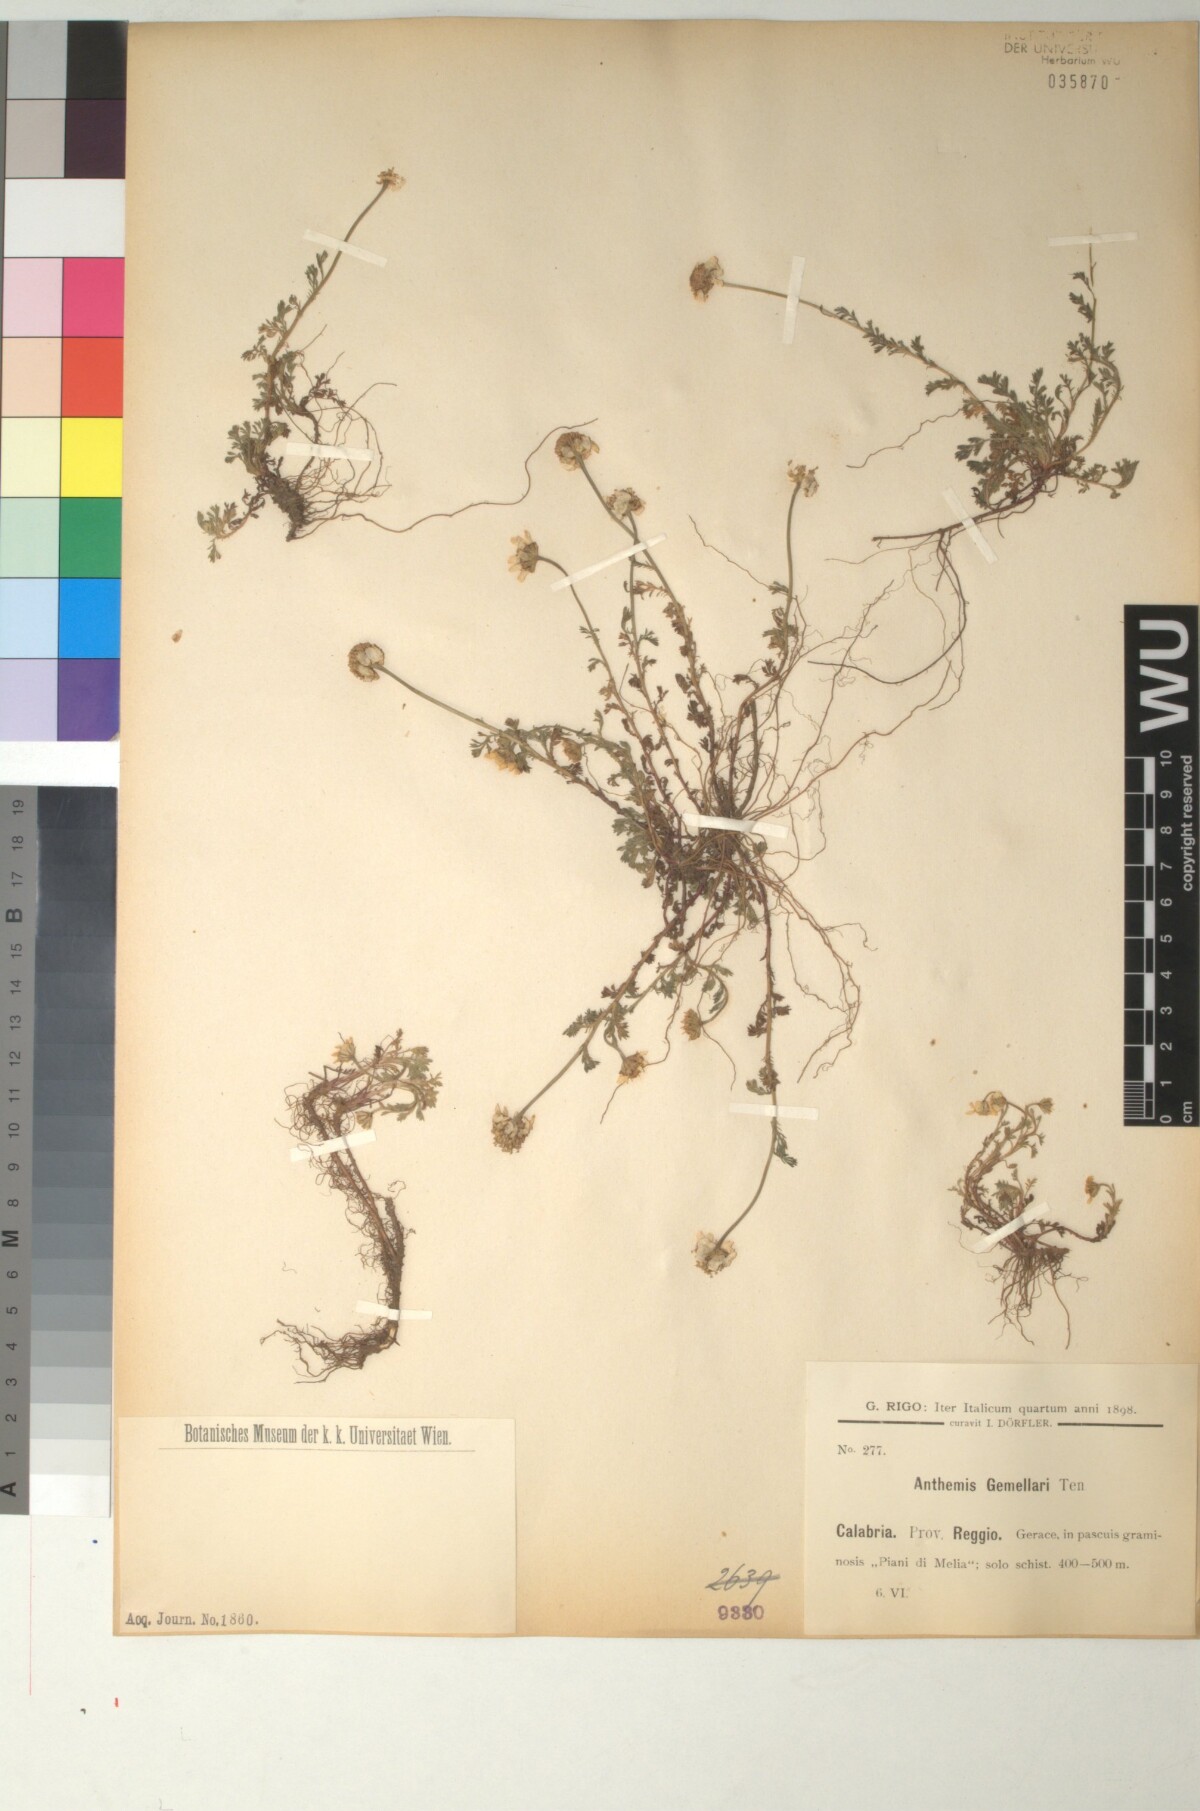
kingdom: Plantae
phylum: Tracheophyta
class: Magnoliopsida
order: Asterales
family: Asteraceae
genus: Anthemis
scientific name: Anthemis arvensis
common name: Corn chamomile
